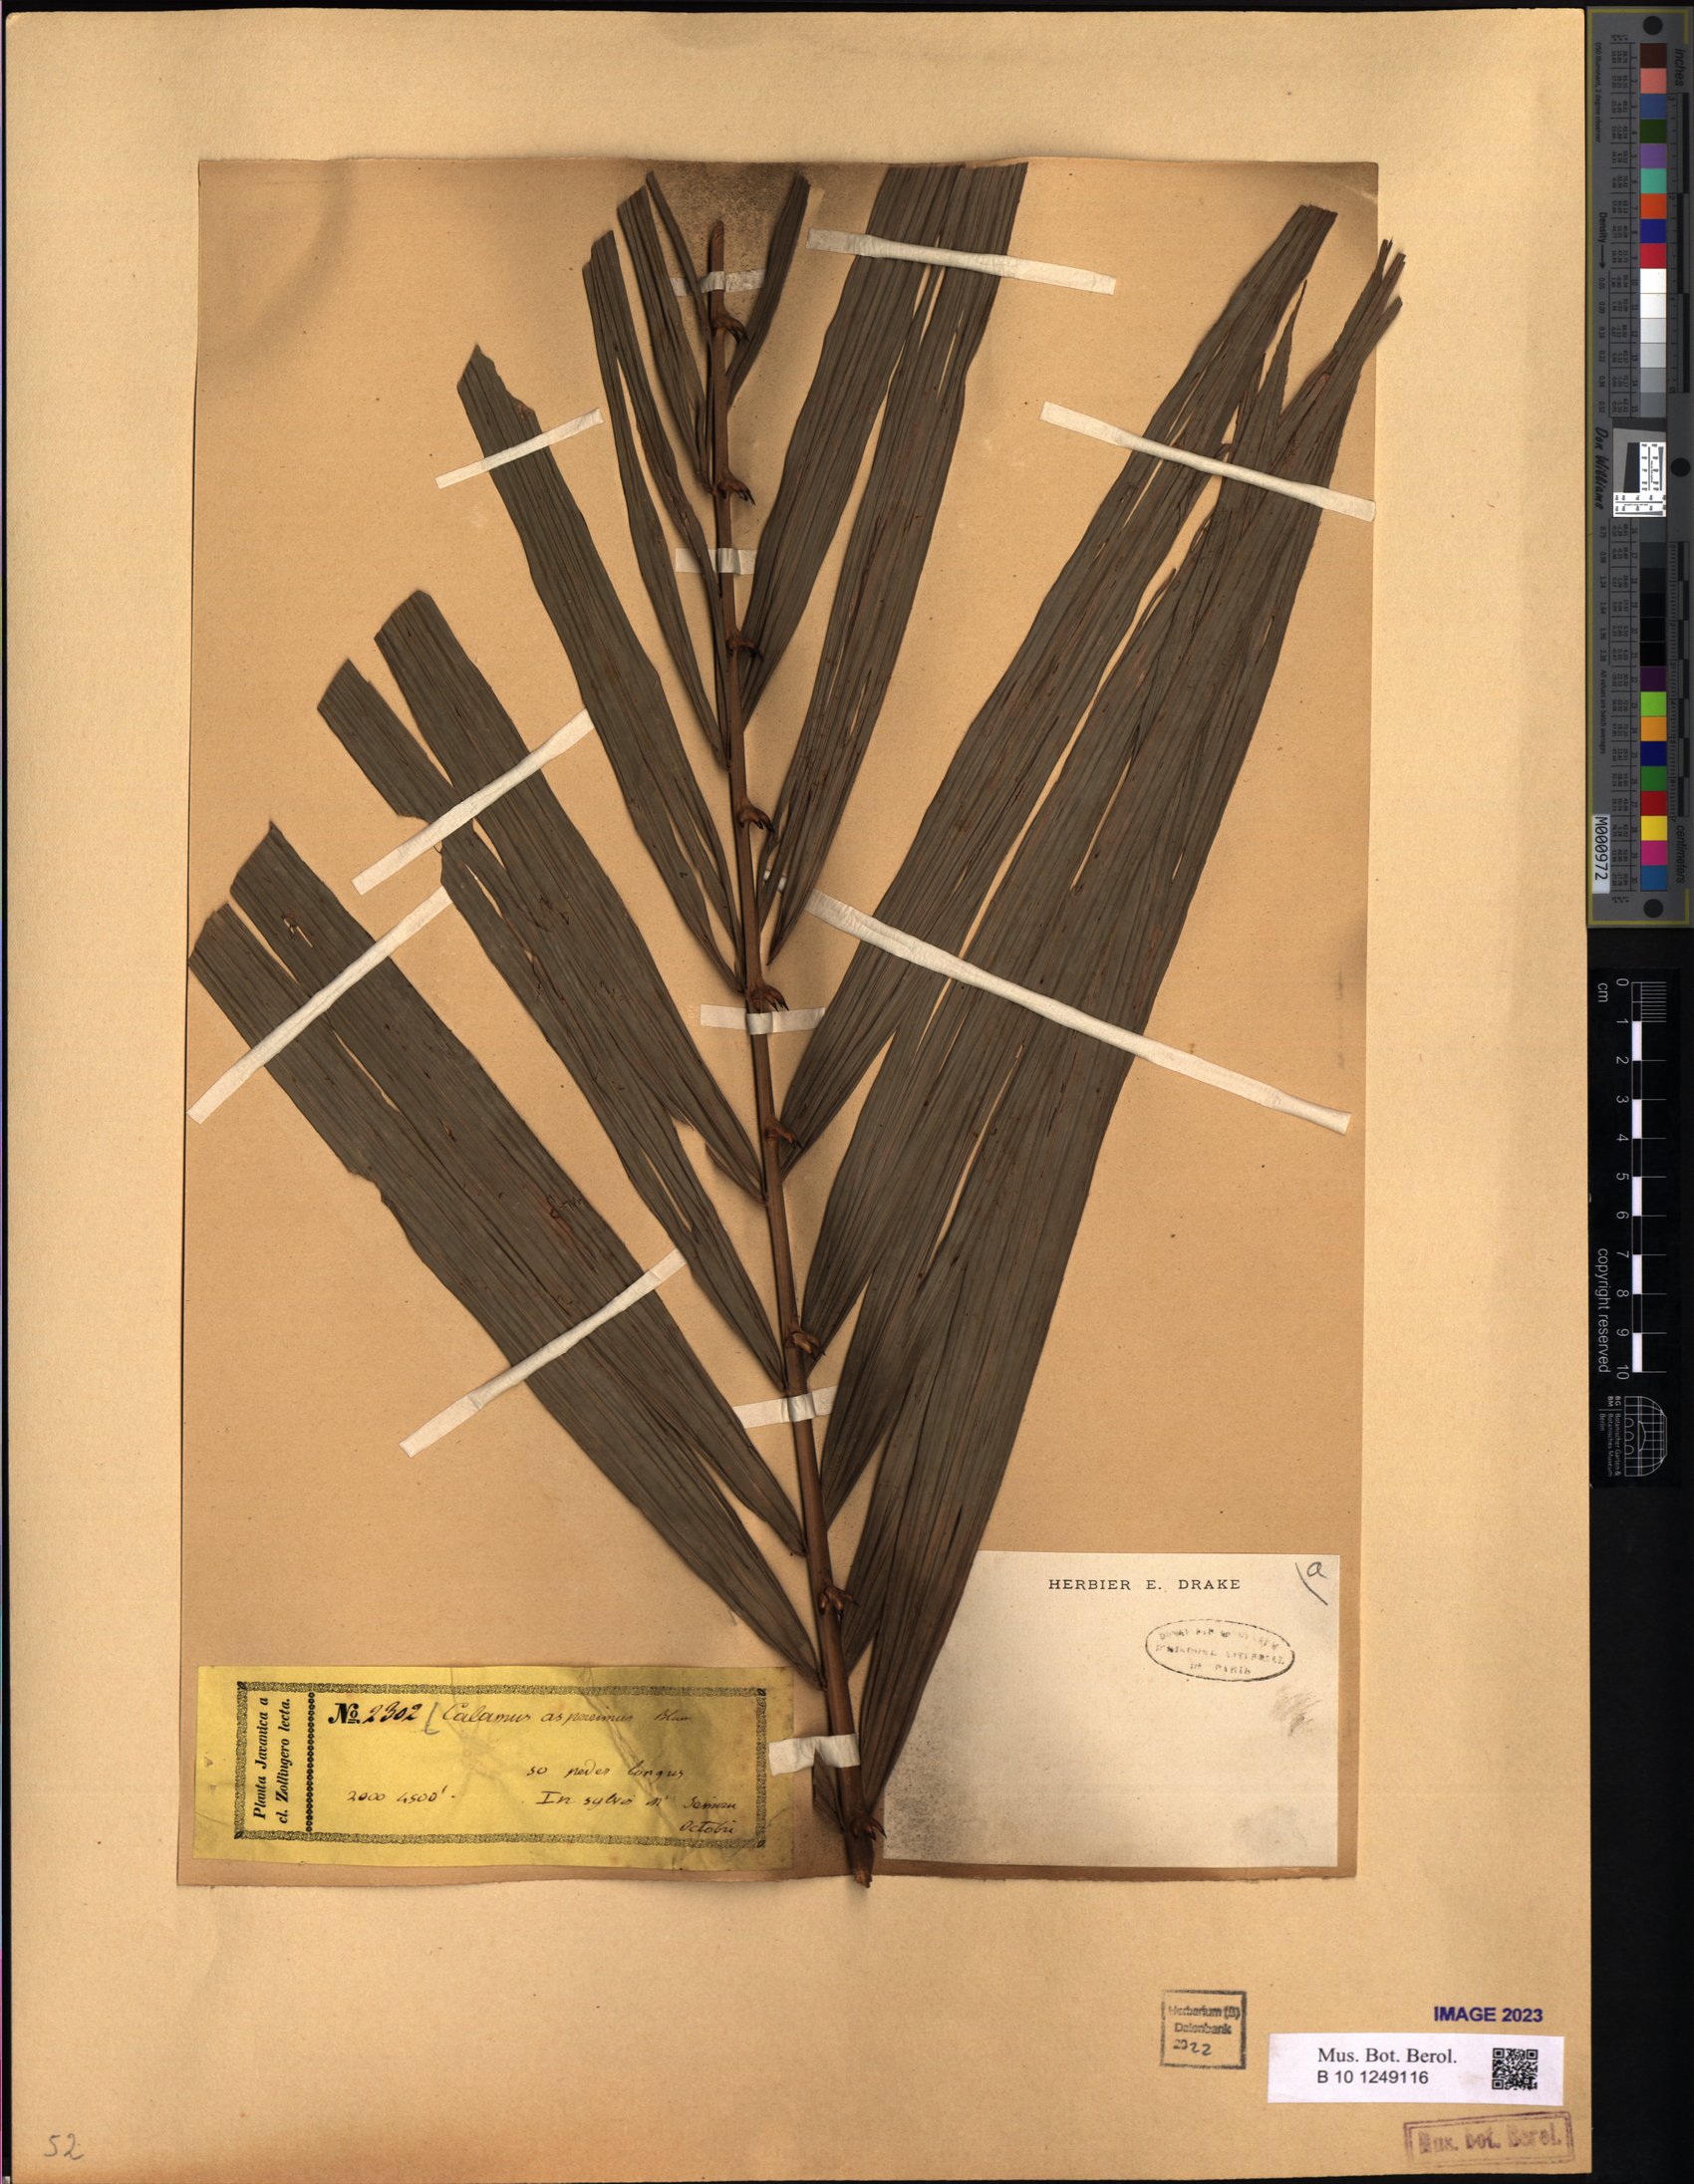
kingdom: Plantae
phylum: Tracheophyta
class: Liliopsida
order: Arecales
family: Arecaceae
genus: Calamus
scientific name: Calamus asperrimus
